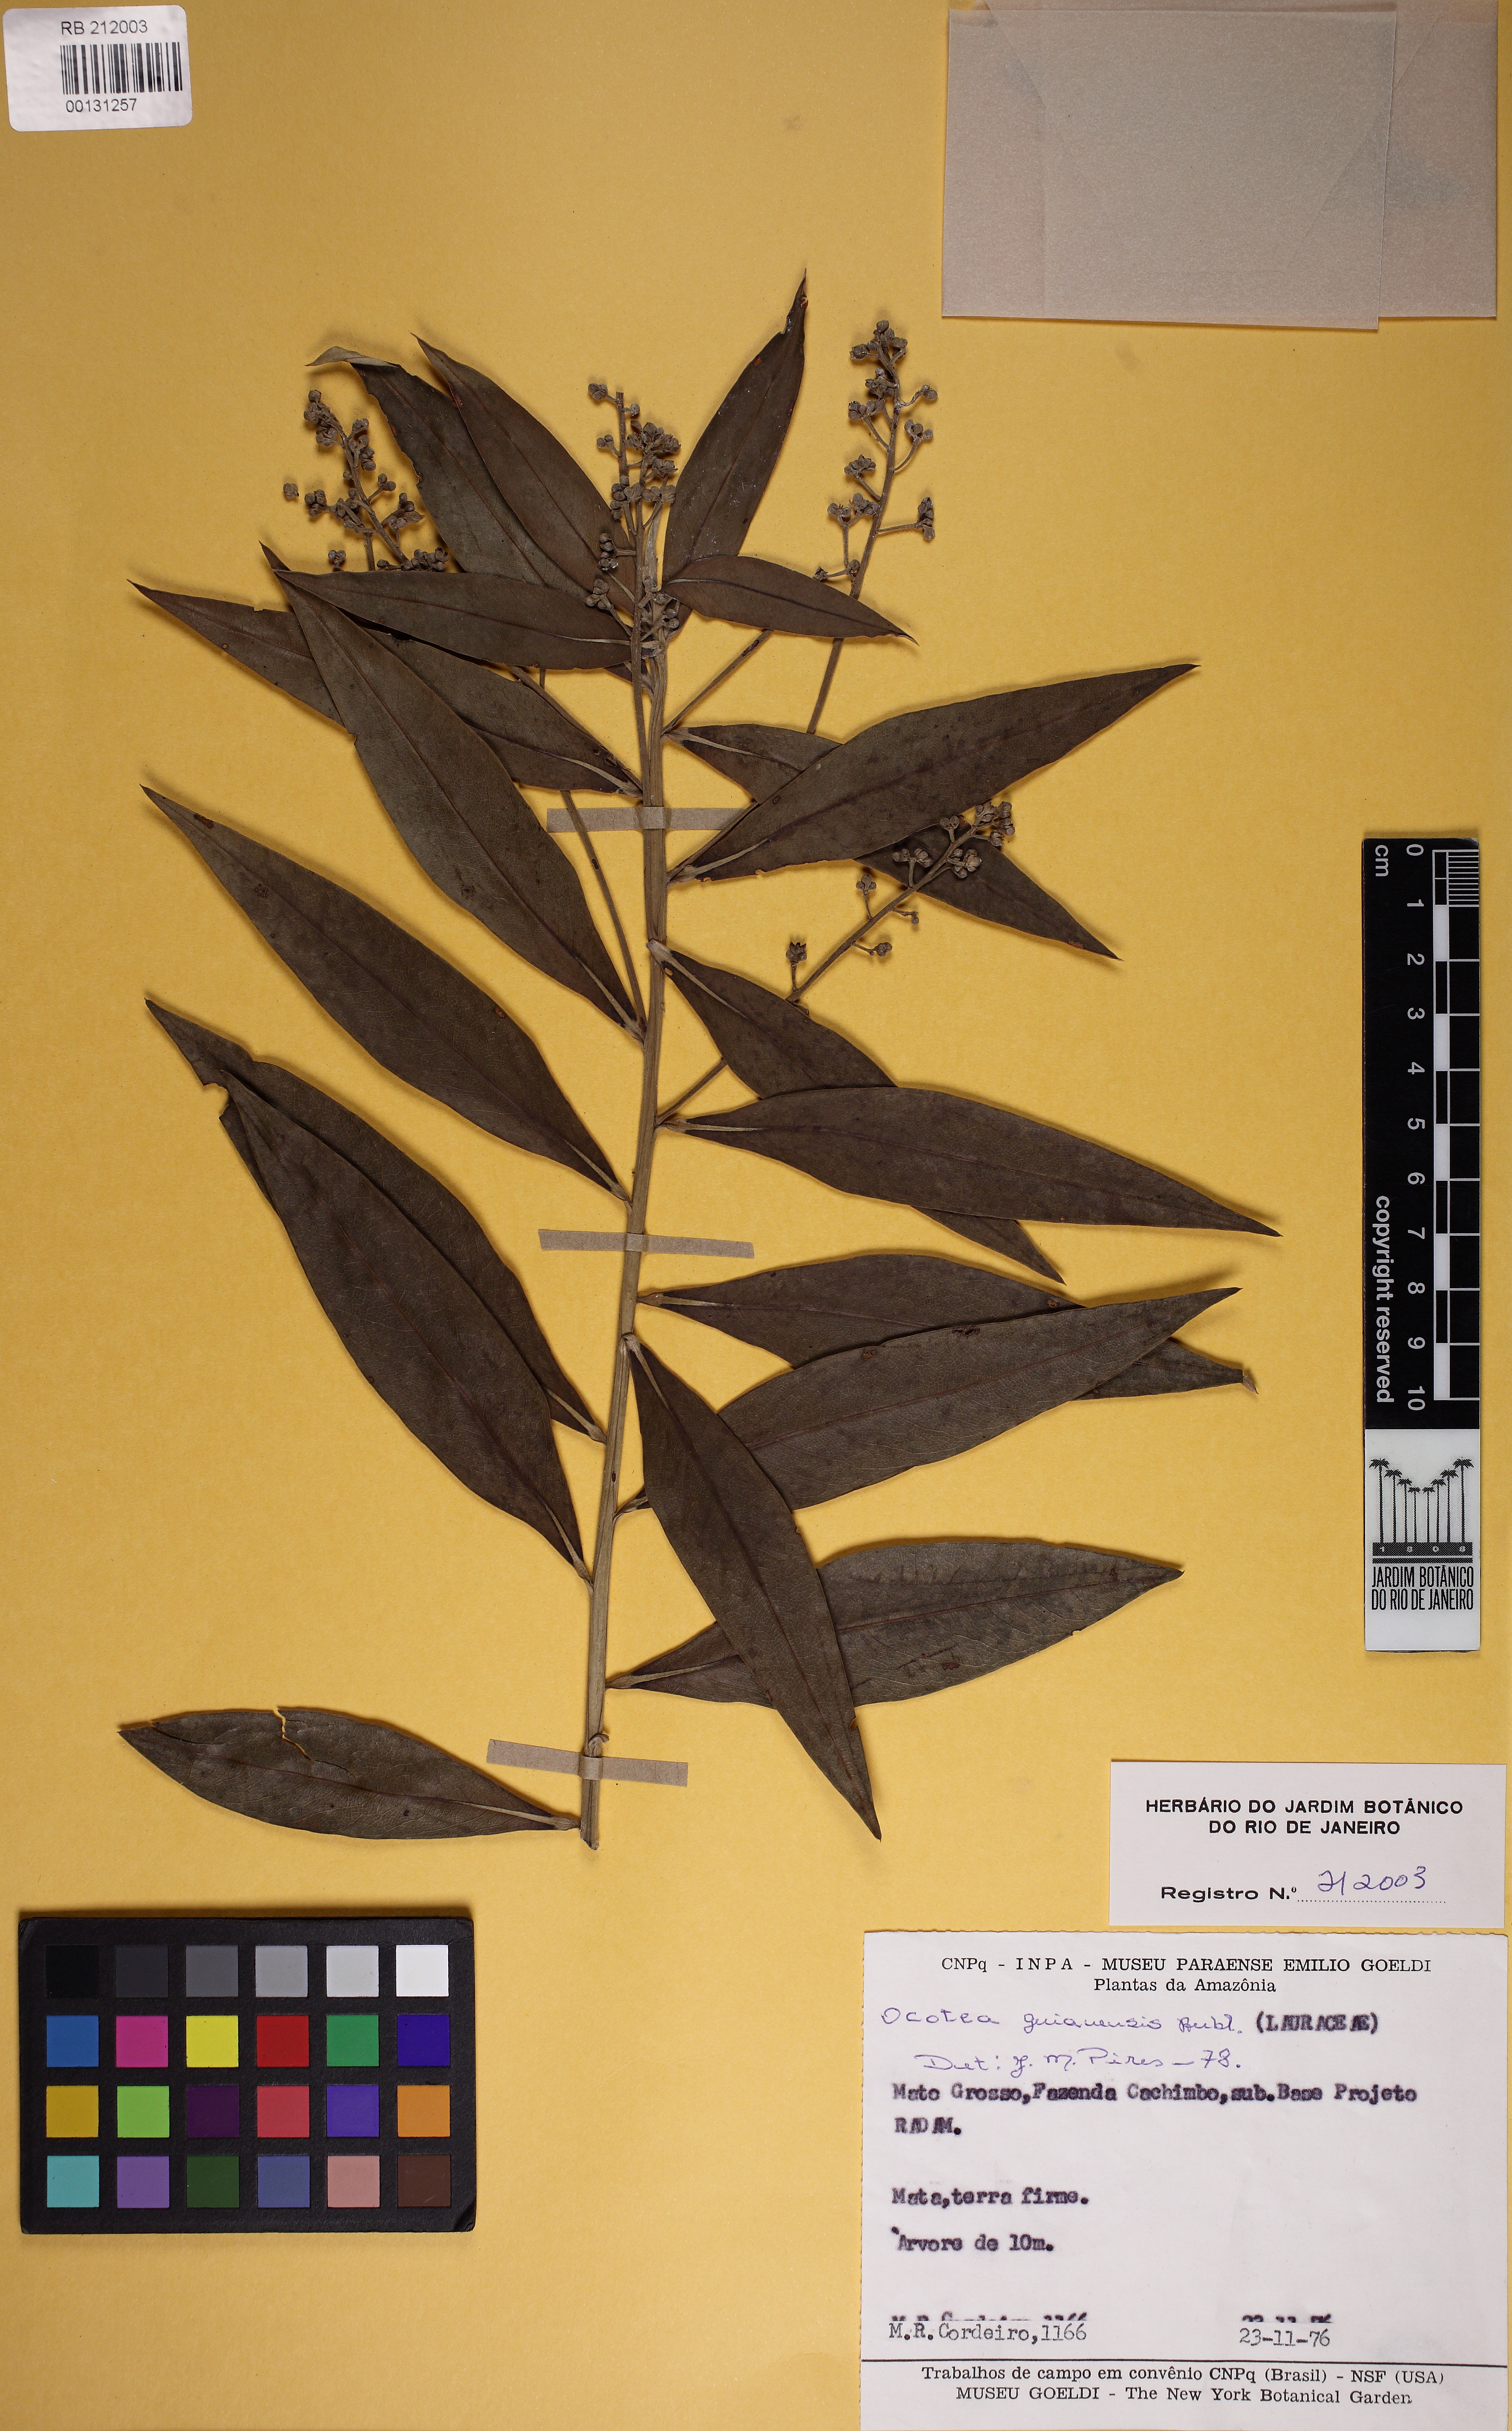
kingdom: Plantae
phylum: Tracheophyta
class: Magnoliopsida
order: Laurales
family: Lauraceae
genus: Ocotea
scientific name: Ocotea guianensis
